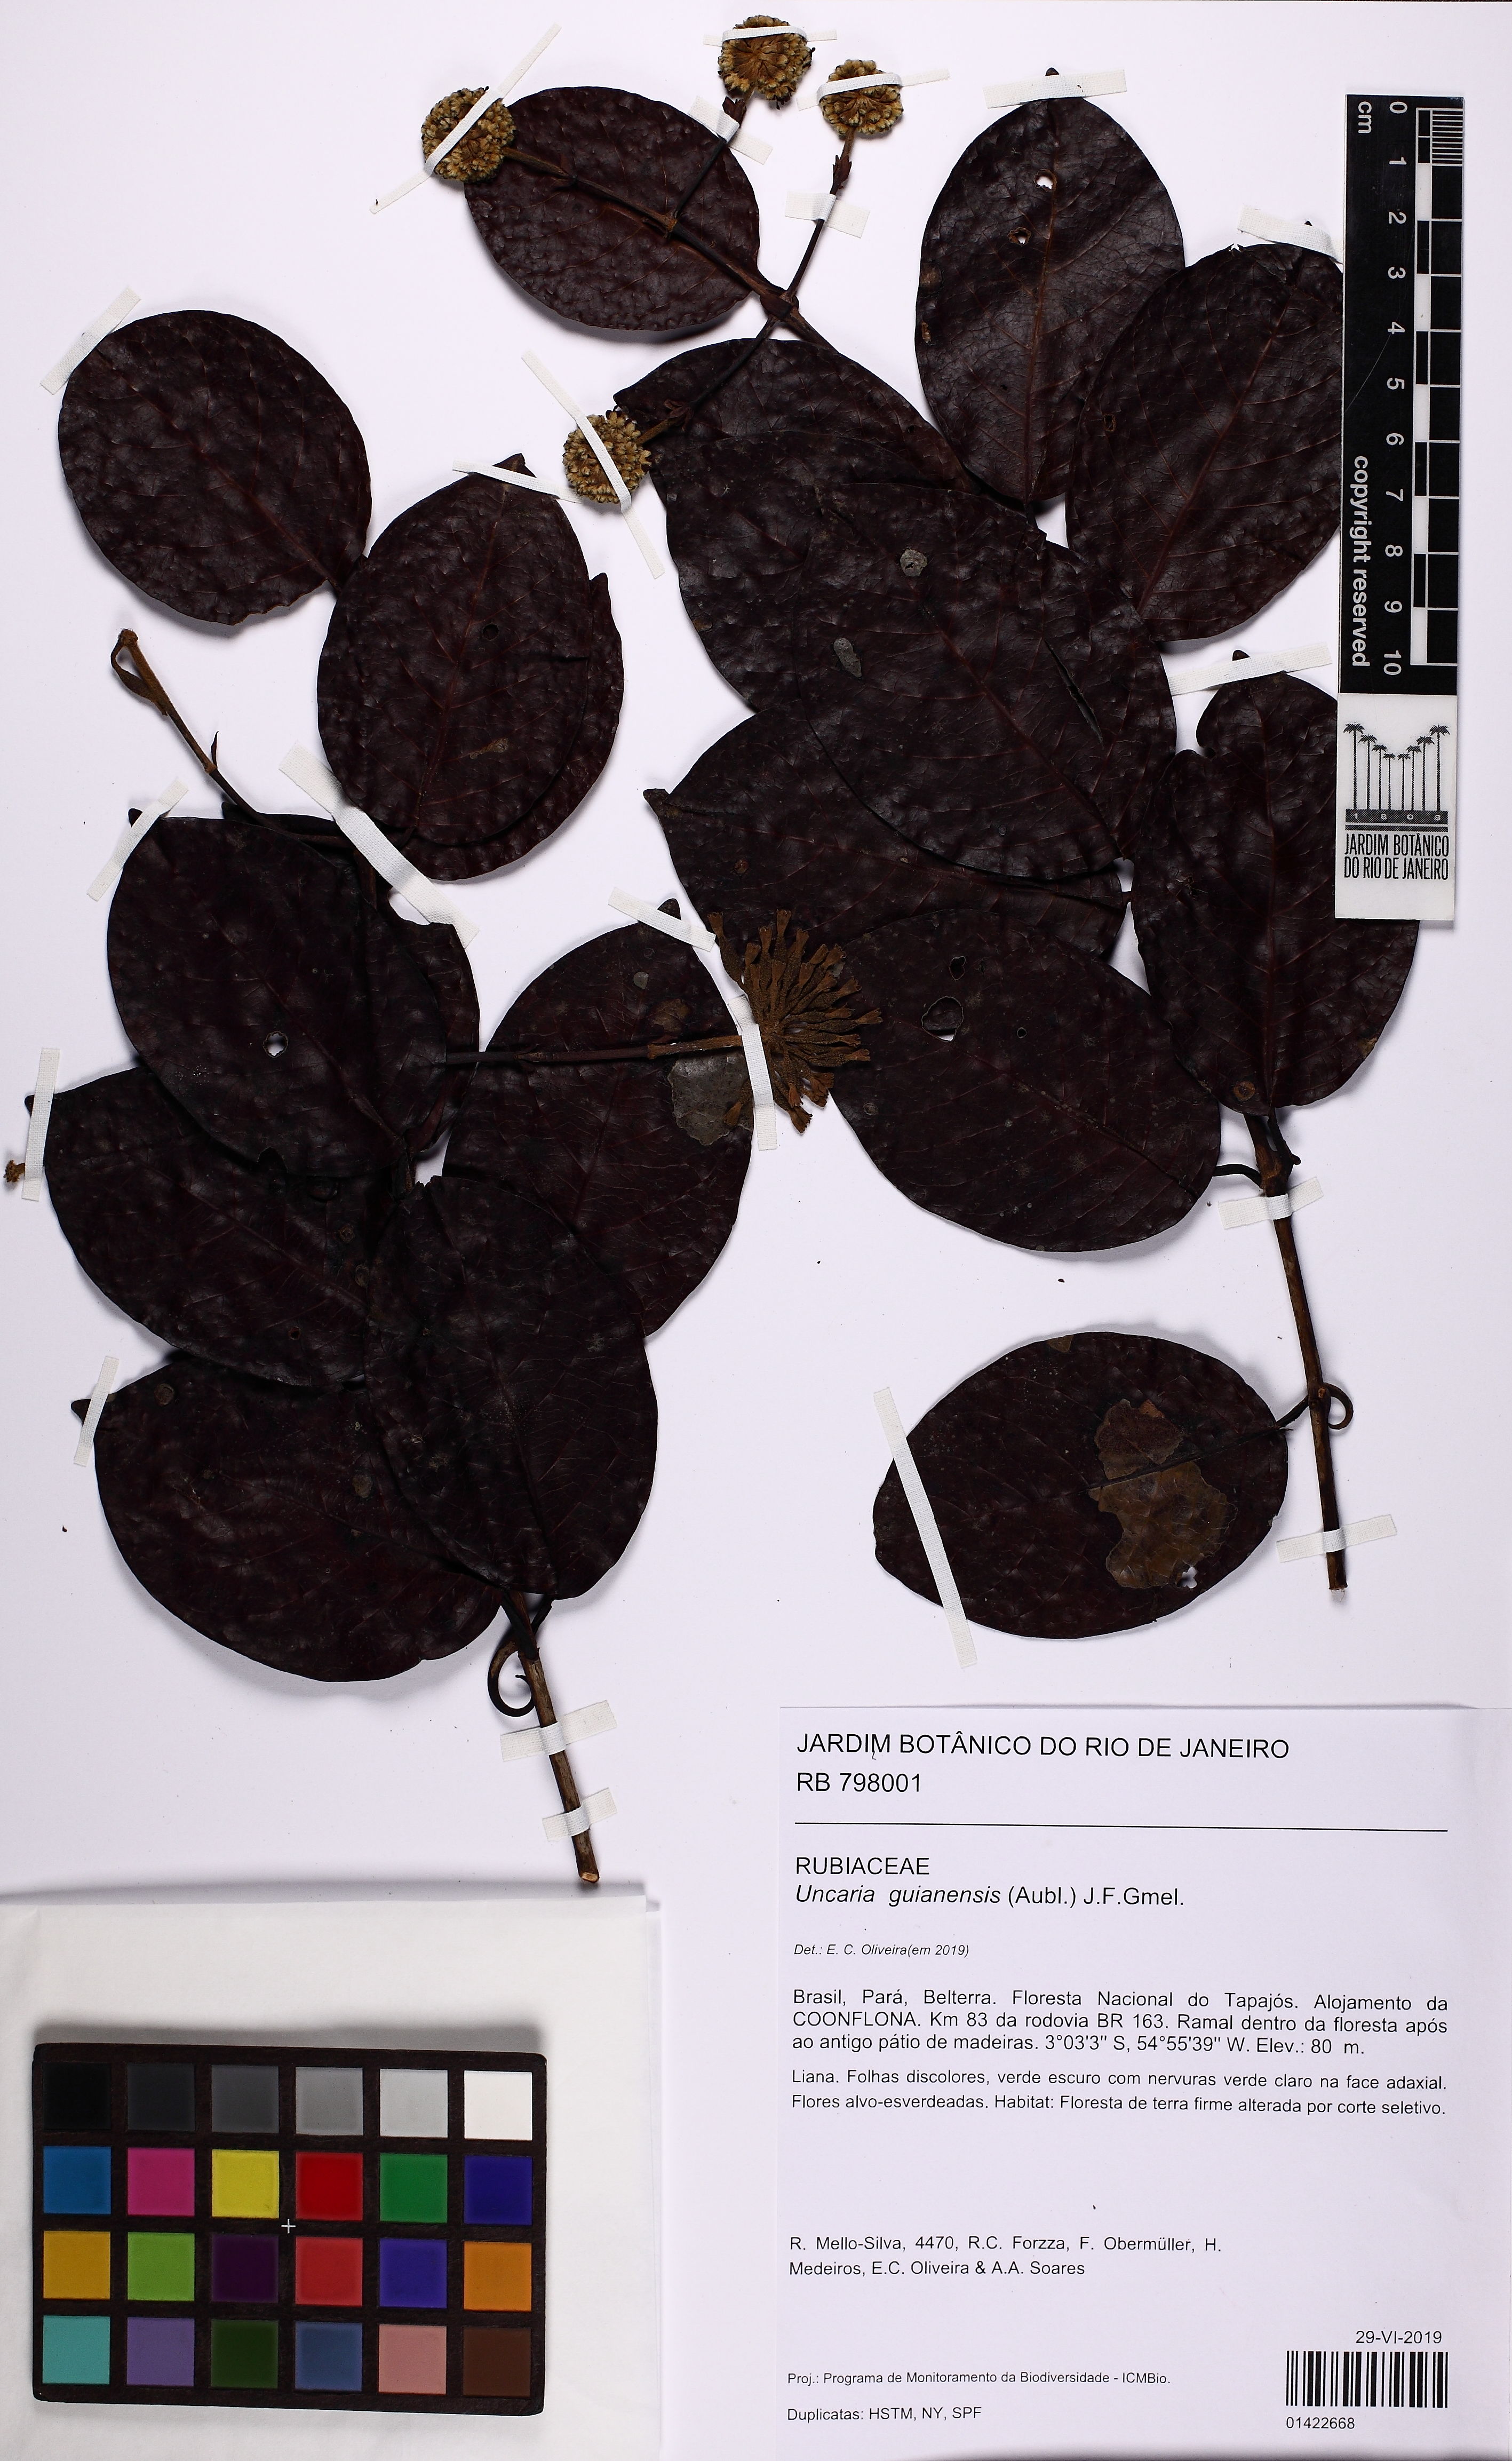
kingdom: Plantae
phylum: Tracheophyta
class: Magnoliopsida
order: Gentianales
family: Rubiaceae
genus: Uncaria
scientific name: Uncaria guianensis
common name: Cat's-claw
